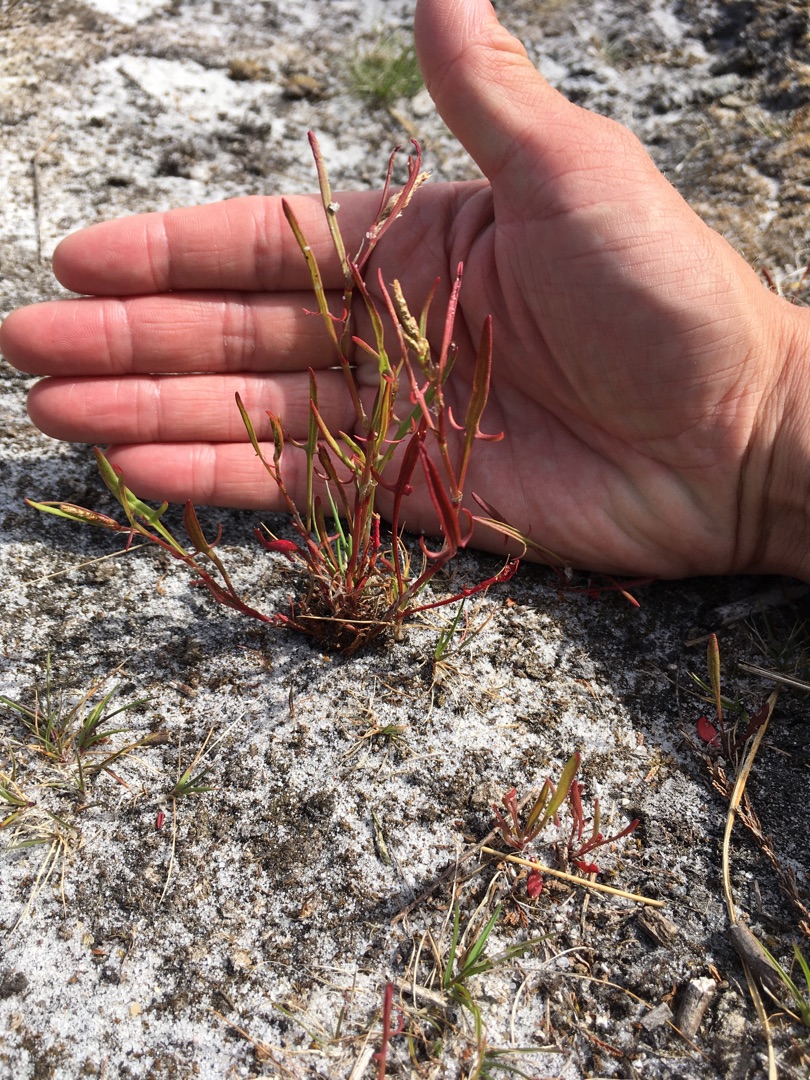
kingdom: Plantae
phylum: Tracheophyta
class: Magnoliopsida
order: Caryophyllales
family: Polygonaceae
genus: Rumex
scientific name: Rumex acetosella
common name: Finbladet rødknæ
